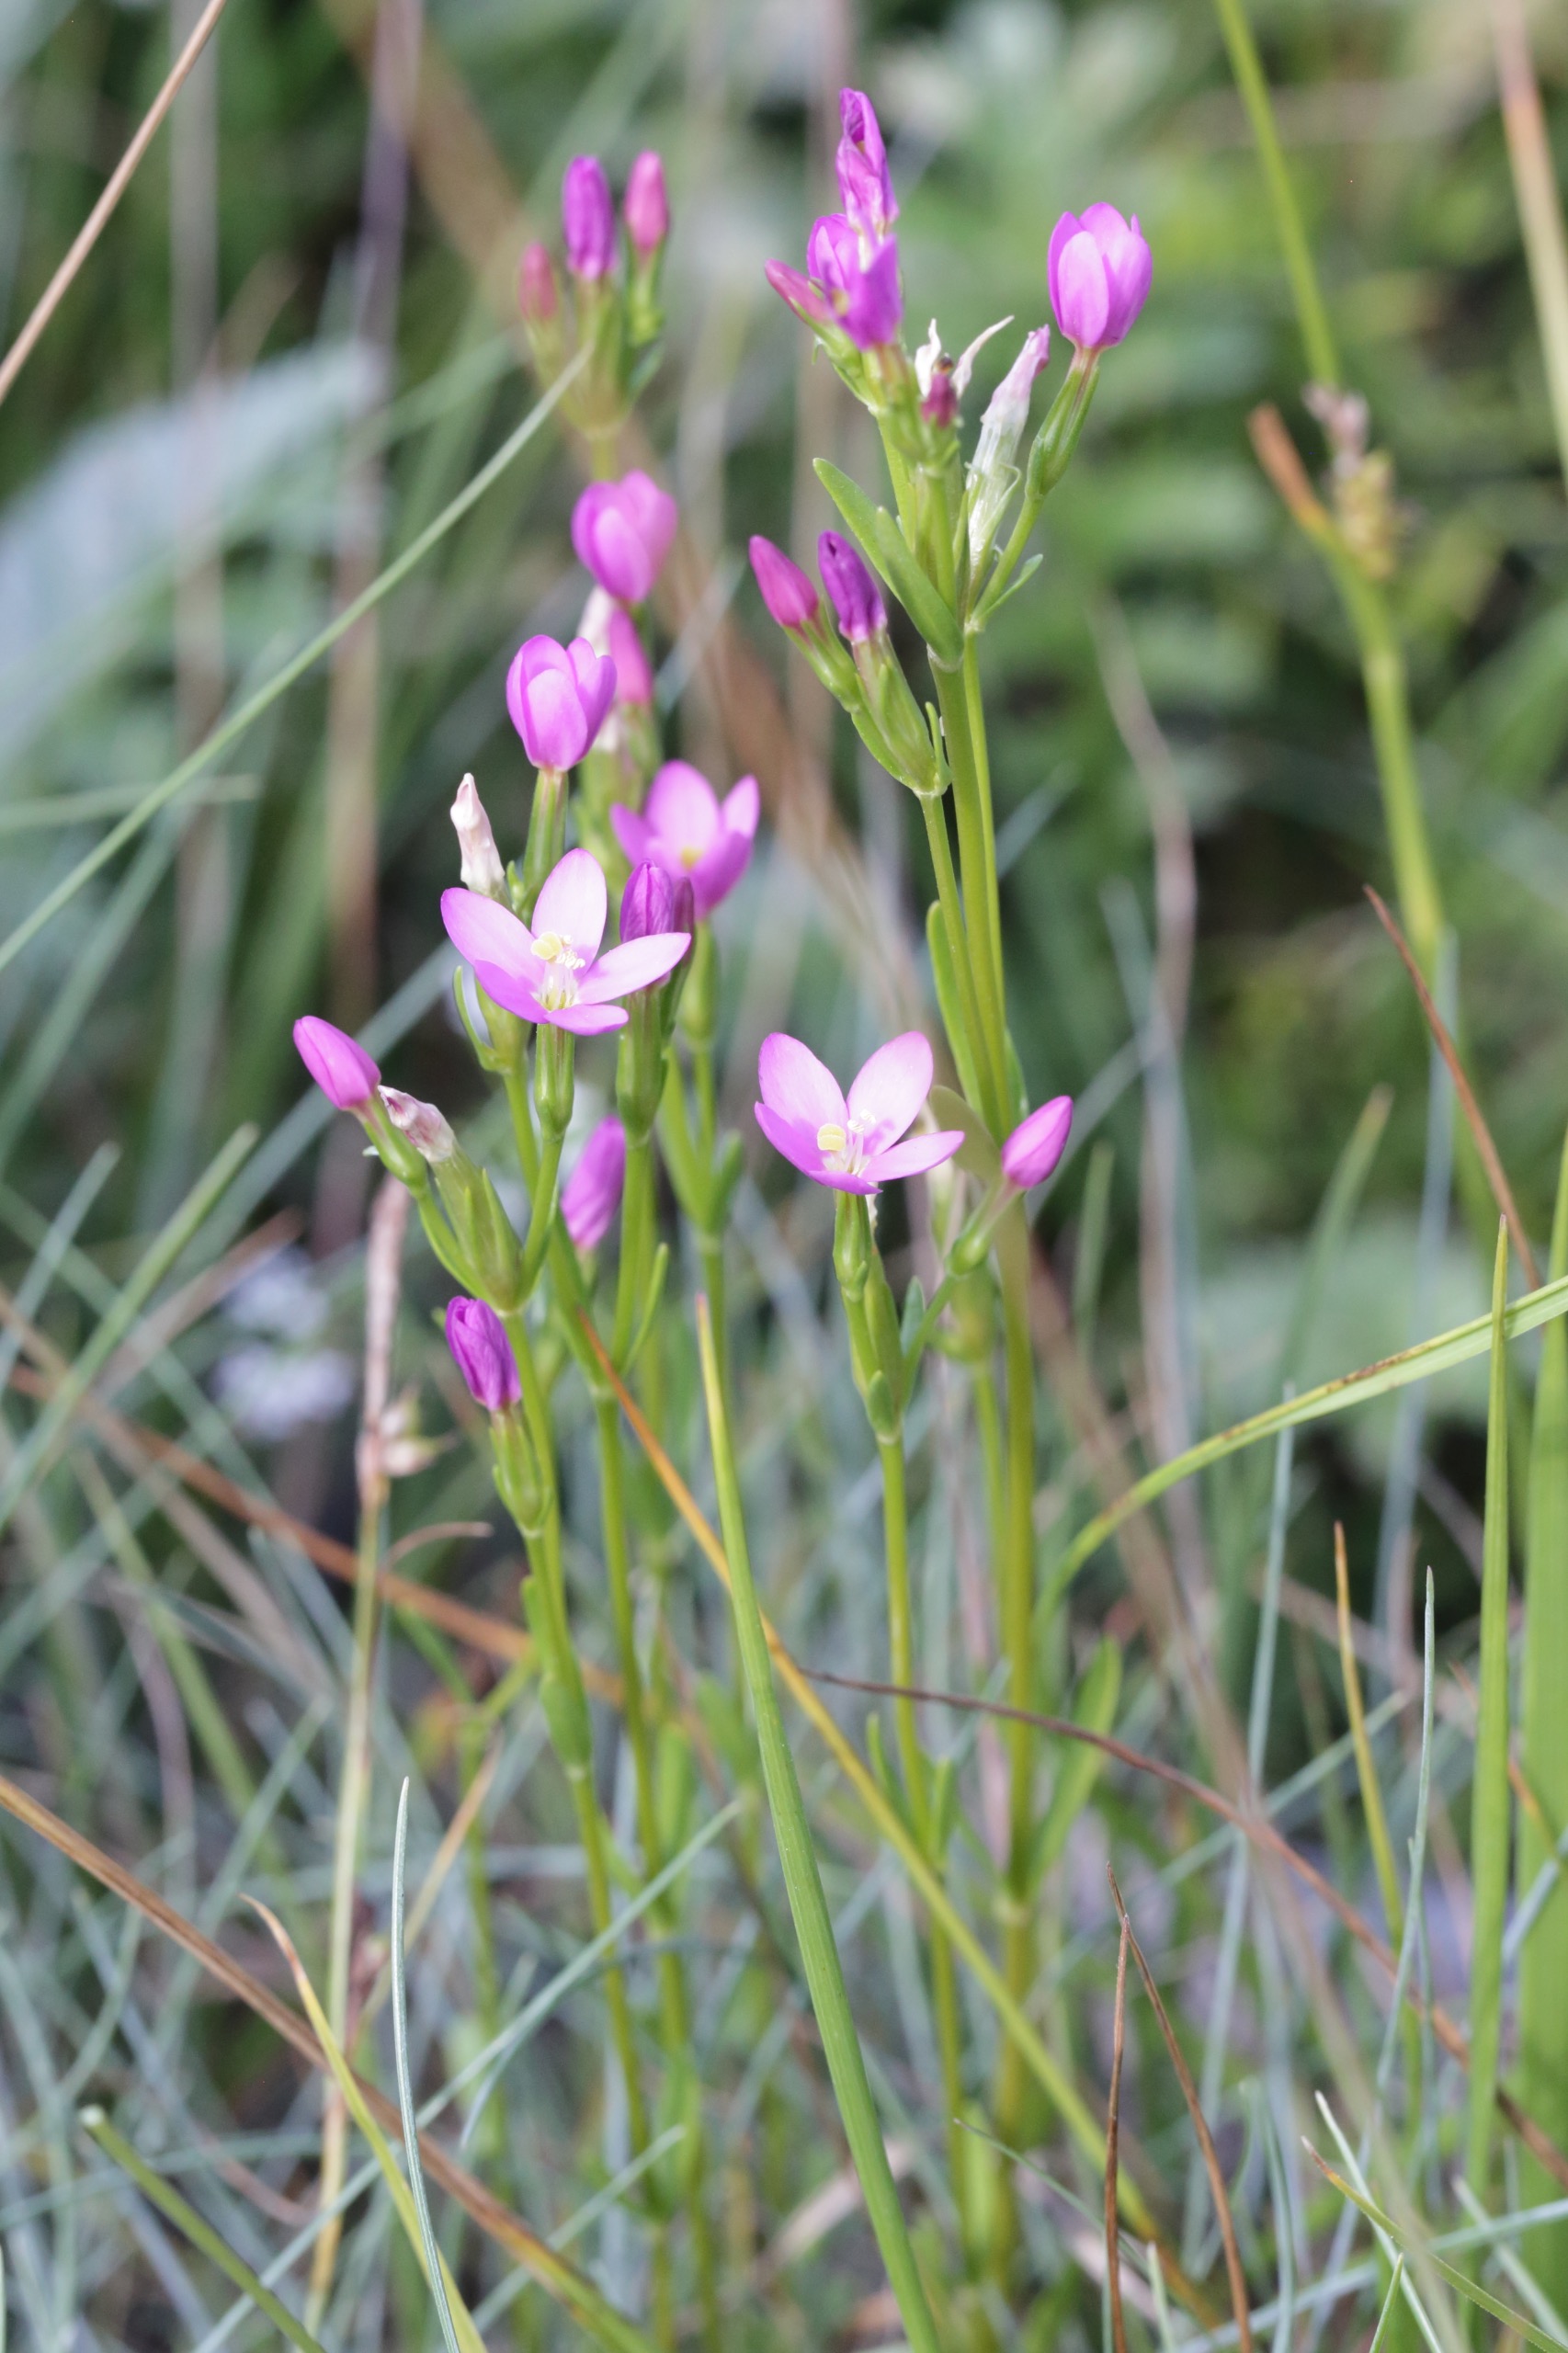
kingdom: Plantae
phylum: Tracheophyta
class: Magnoliopsida
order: Gentianales
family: Gentianaceae
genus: Centaurium
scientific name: Centaurium littorale
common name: Strand-tusindgylden
